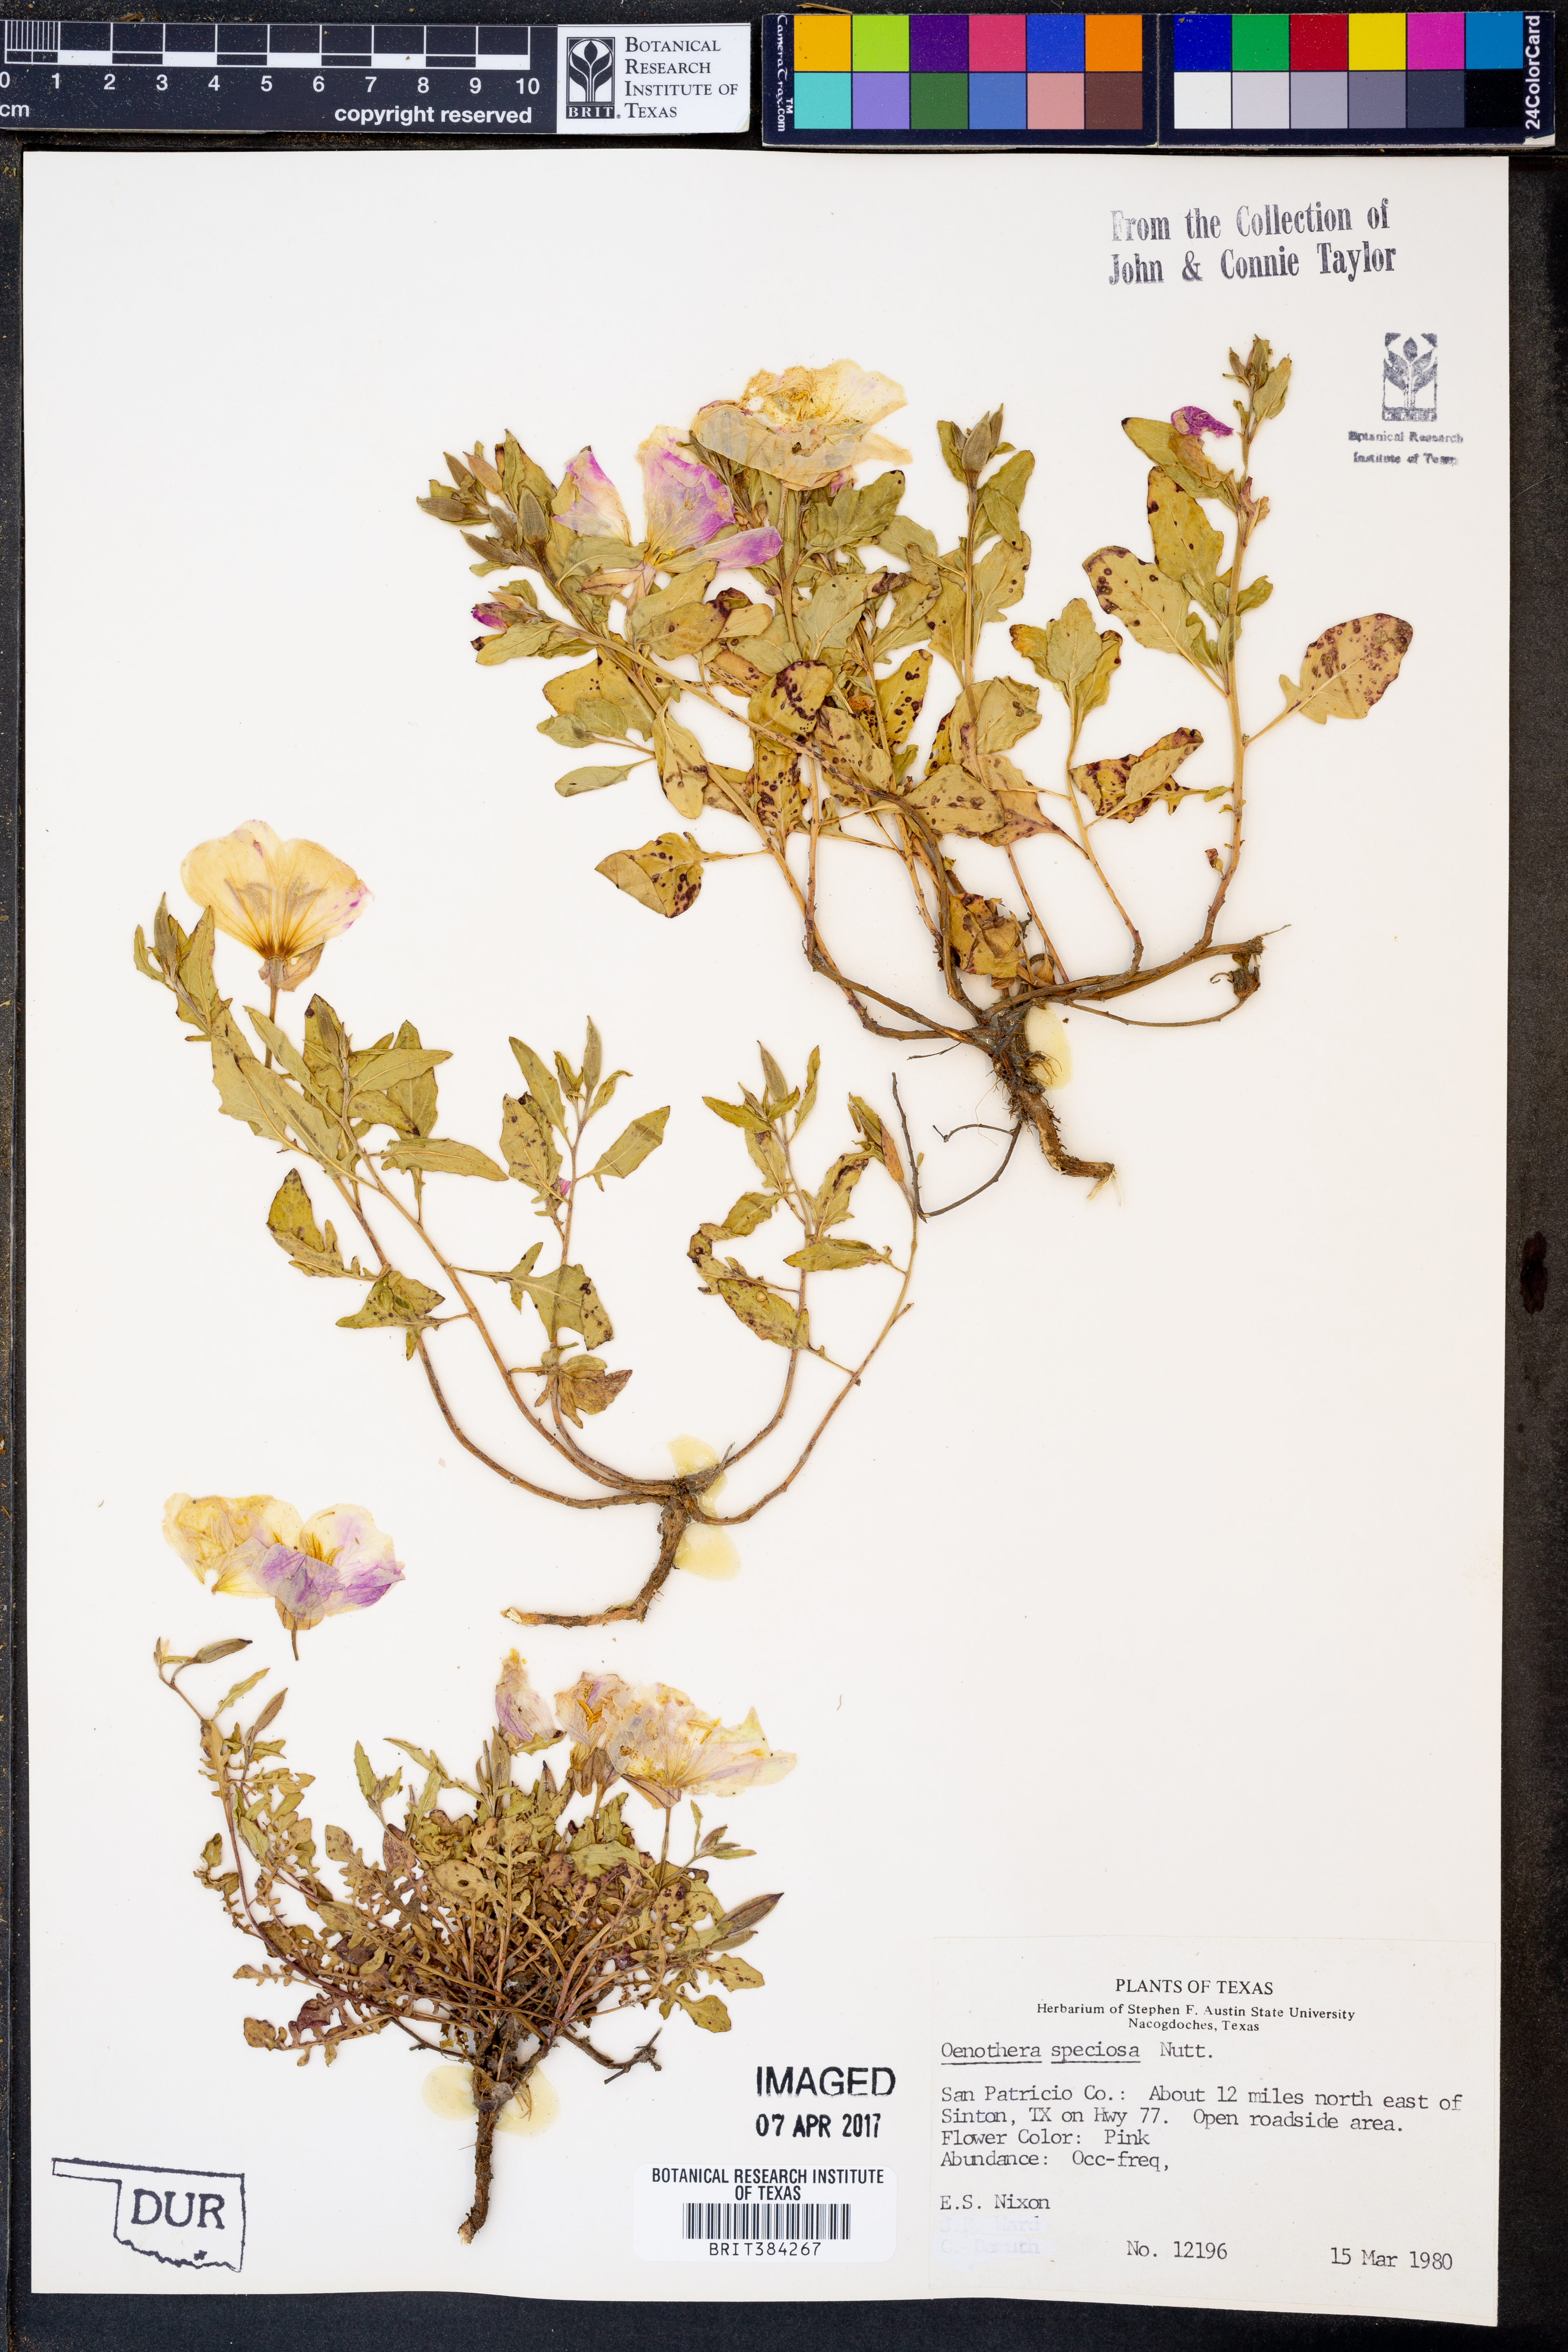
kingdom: Plantae
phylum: Tracheophyta
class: Magnoliopsida
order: Myrtales
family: Onagraceae
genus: Oenothera
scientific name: Oenothera speciosa
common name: White evening-primrose
